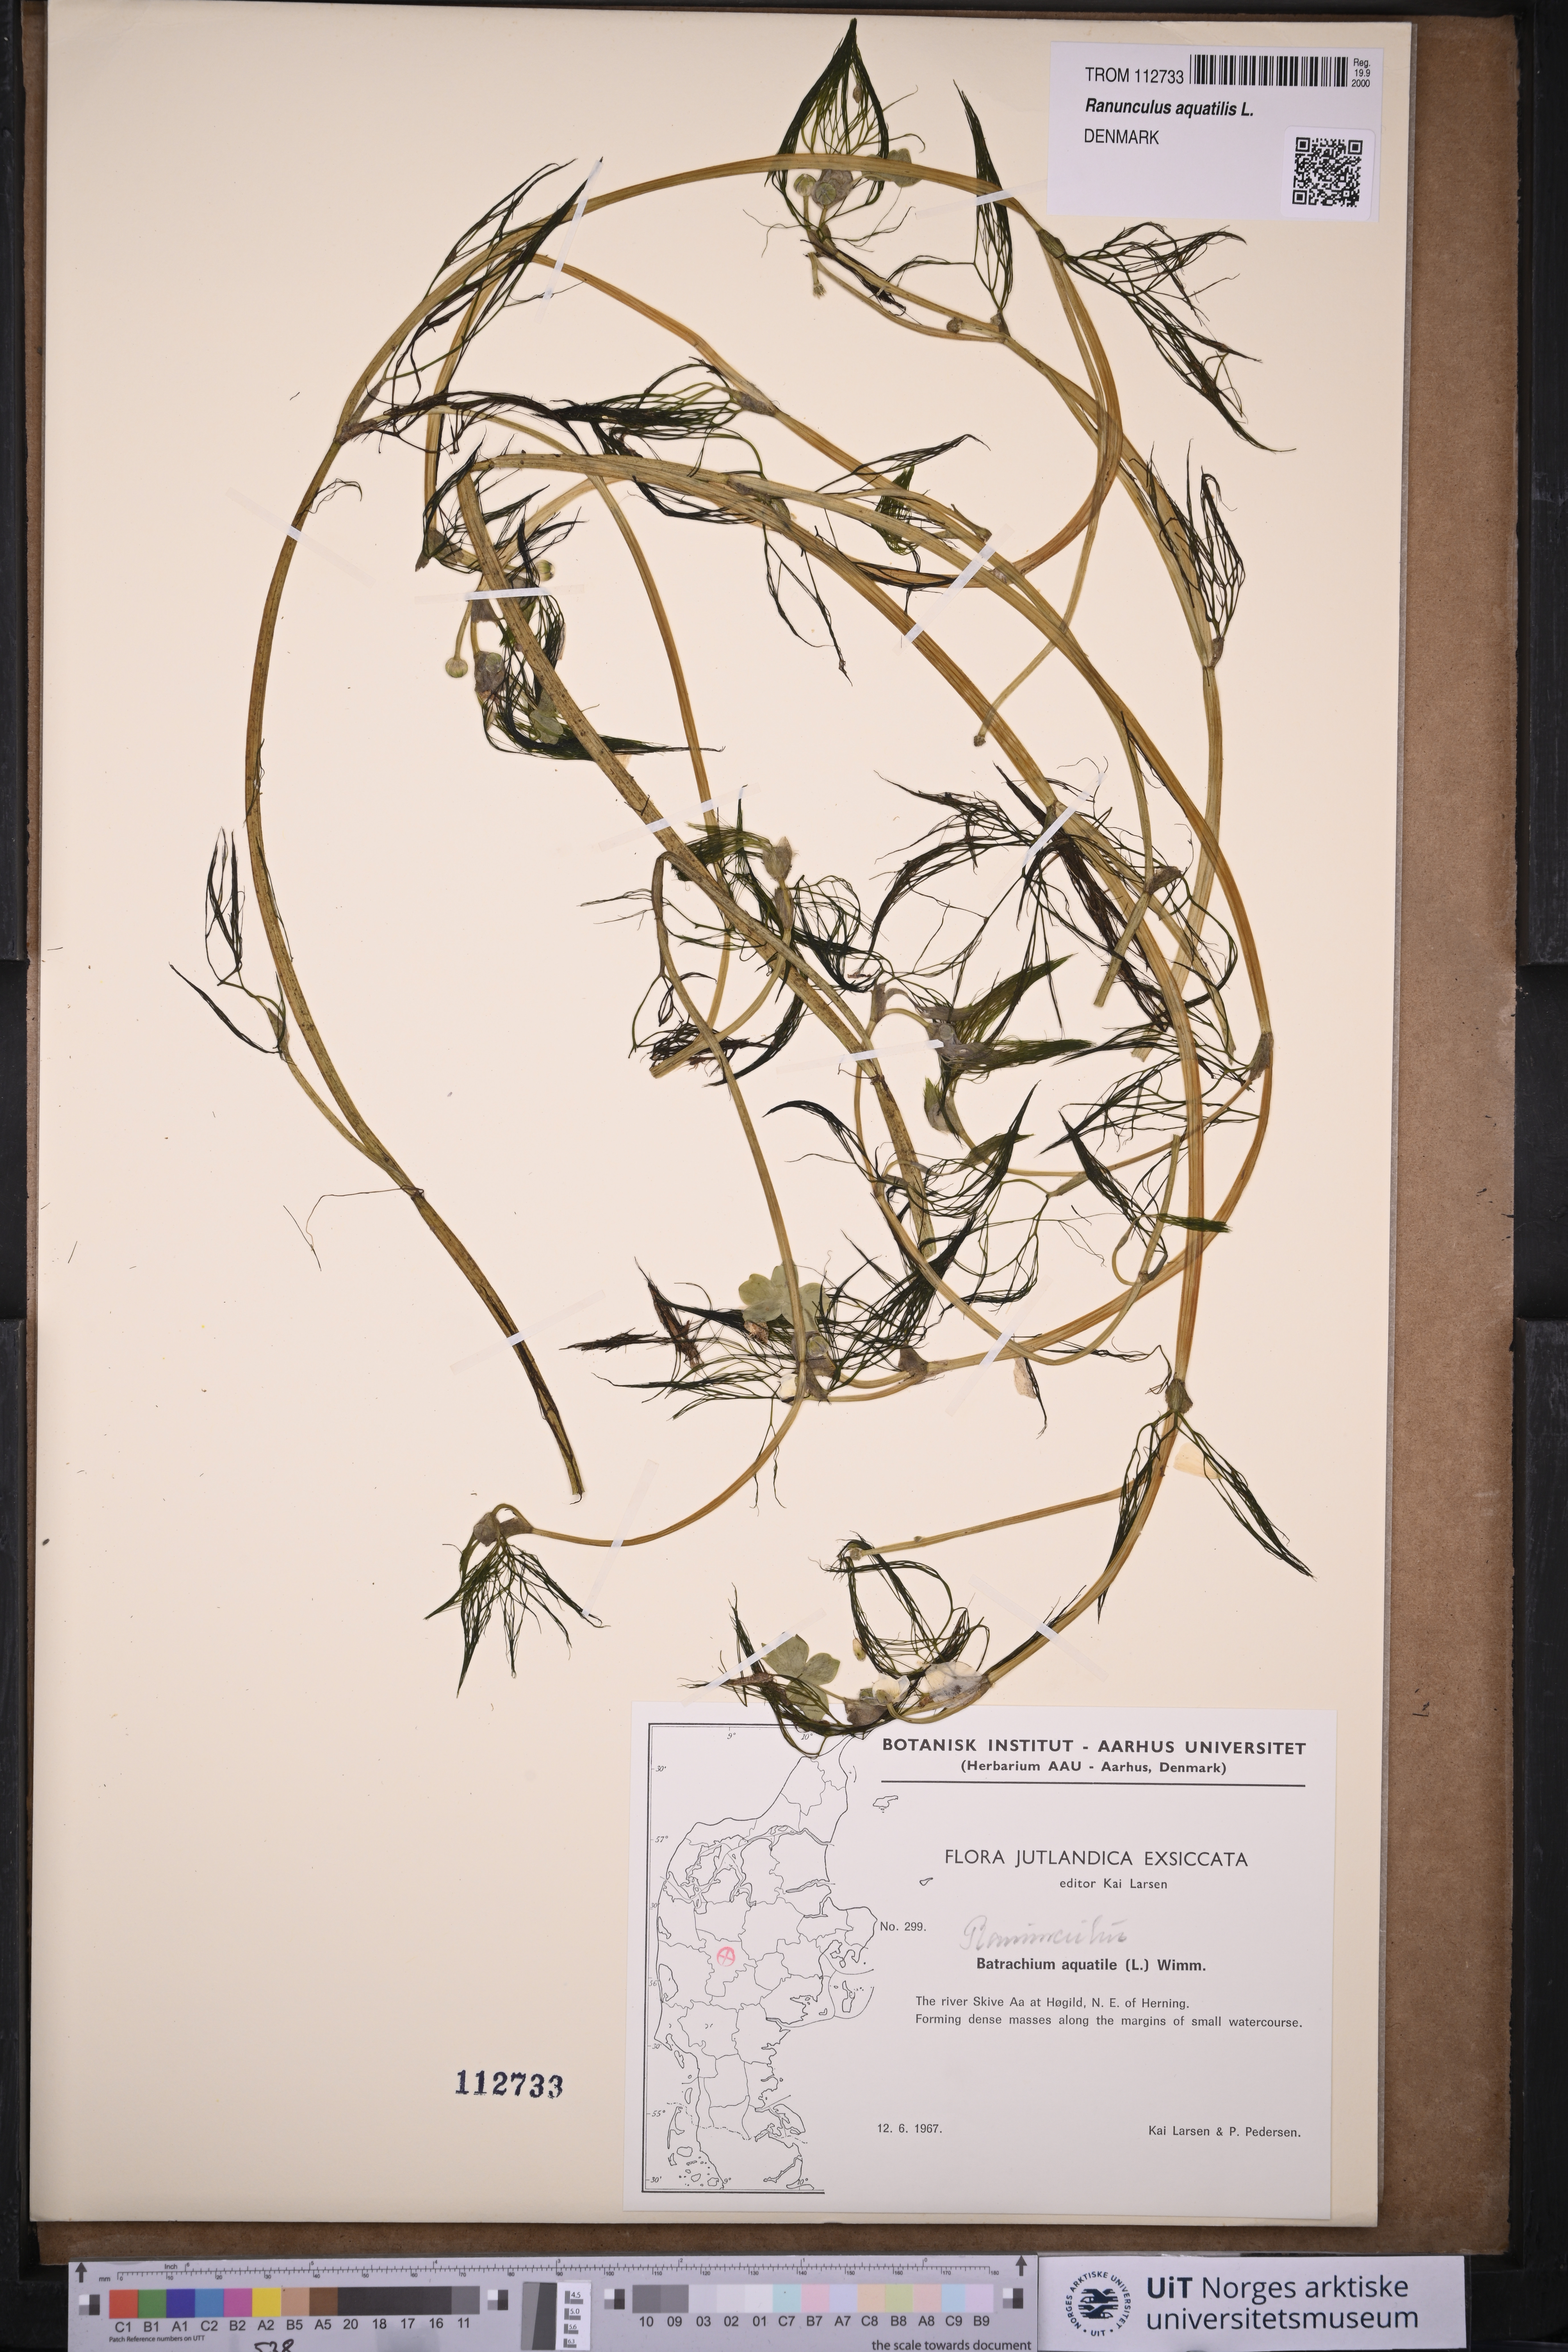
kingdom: Plantae
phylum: Tracheophyta
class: Magnoliopsida
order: Ranunculales
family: Ranunculaceae
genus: Ranunculus
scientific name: Ranunculus aquatilis
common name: Common water-crowfoot
